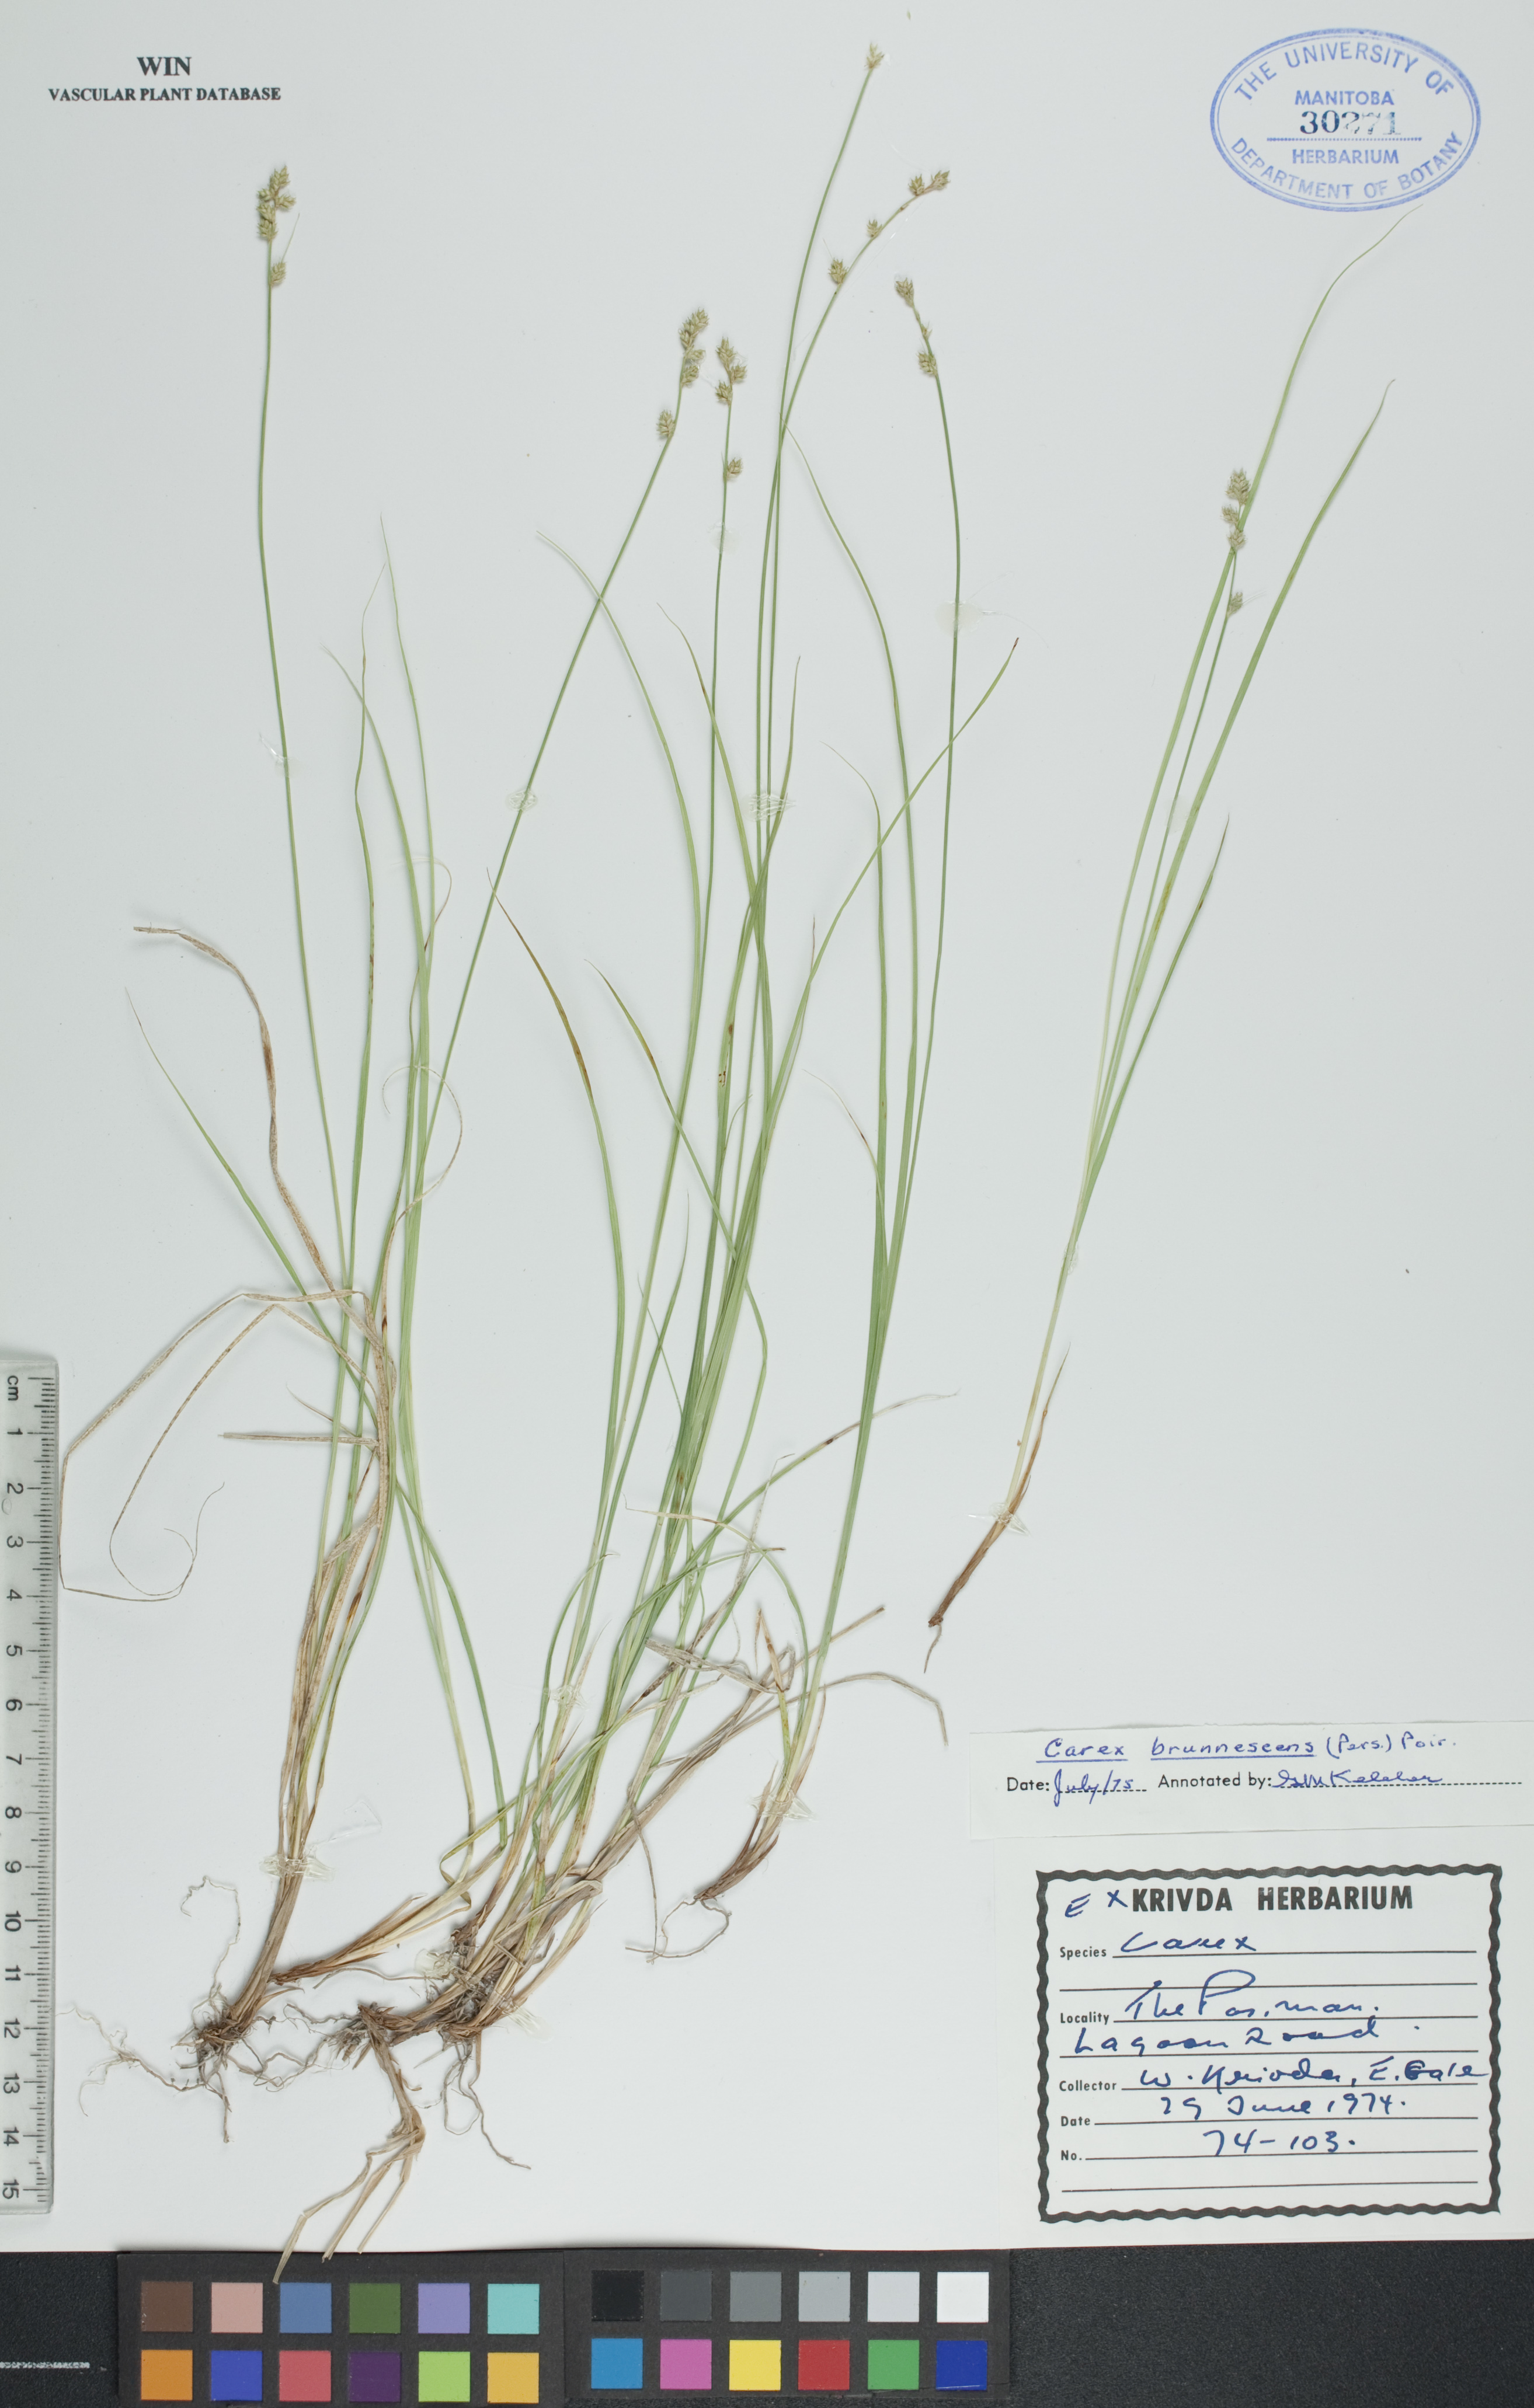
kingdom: Plantae
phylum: Tracheophyta
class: Liliopsida
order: Poales
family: Cyperaceae
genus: Carex
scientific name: Carex brunnescens
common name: Brown sedge
